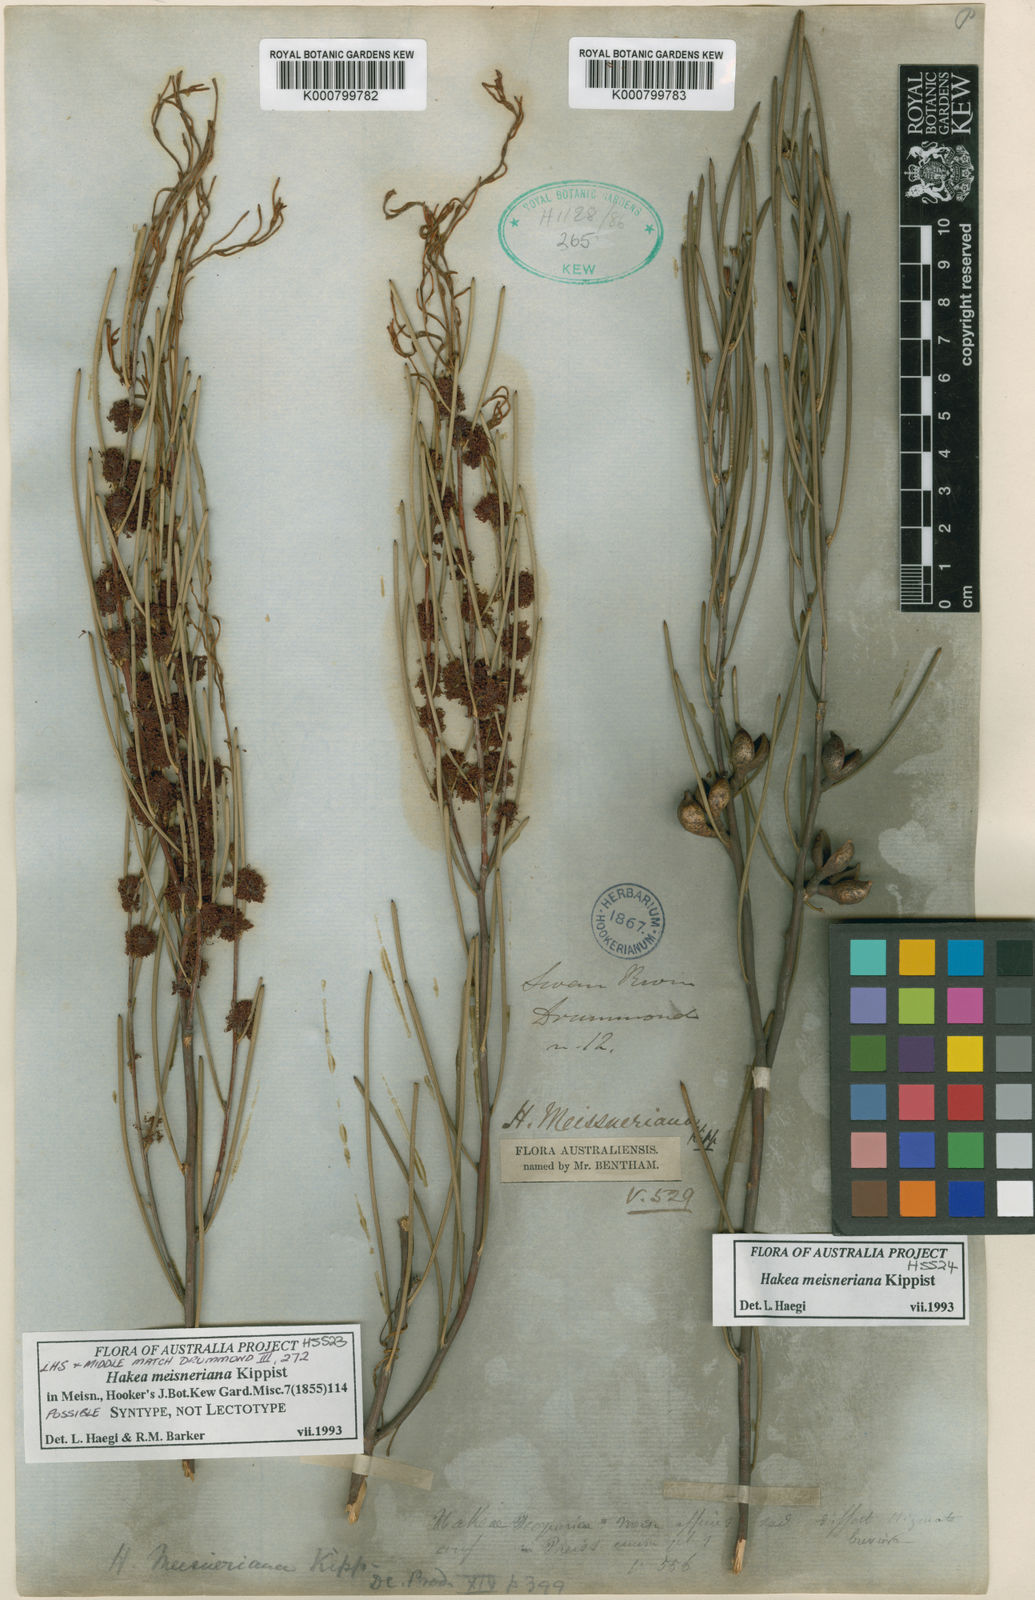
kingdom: Plantae
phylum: Tracheophyta
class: Magnoliopsida
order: Proteales
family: Proteaceae
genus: Hakea
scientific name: Hakea
